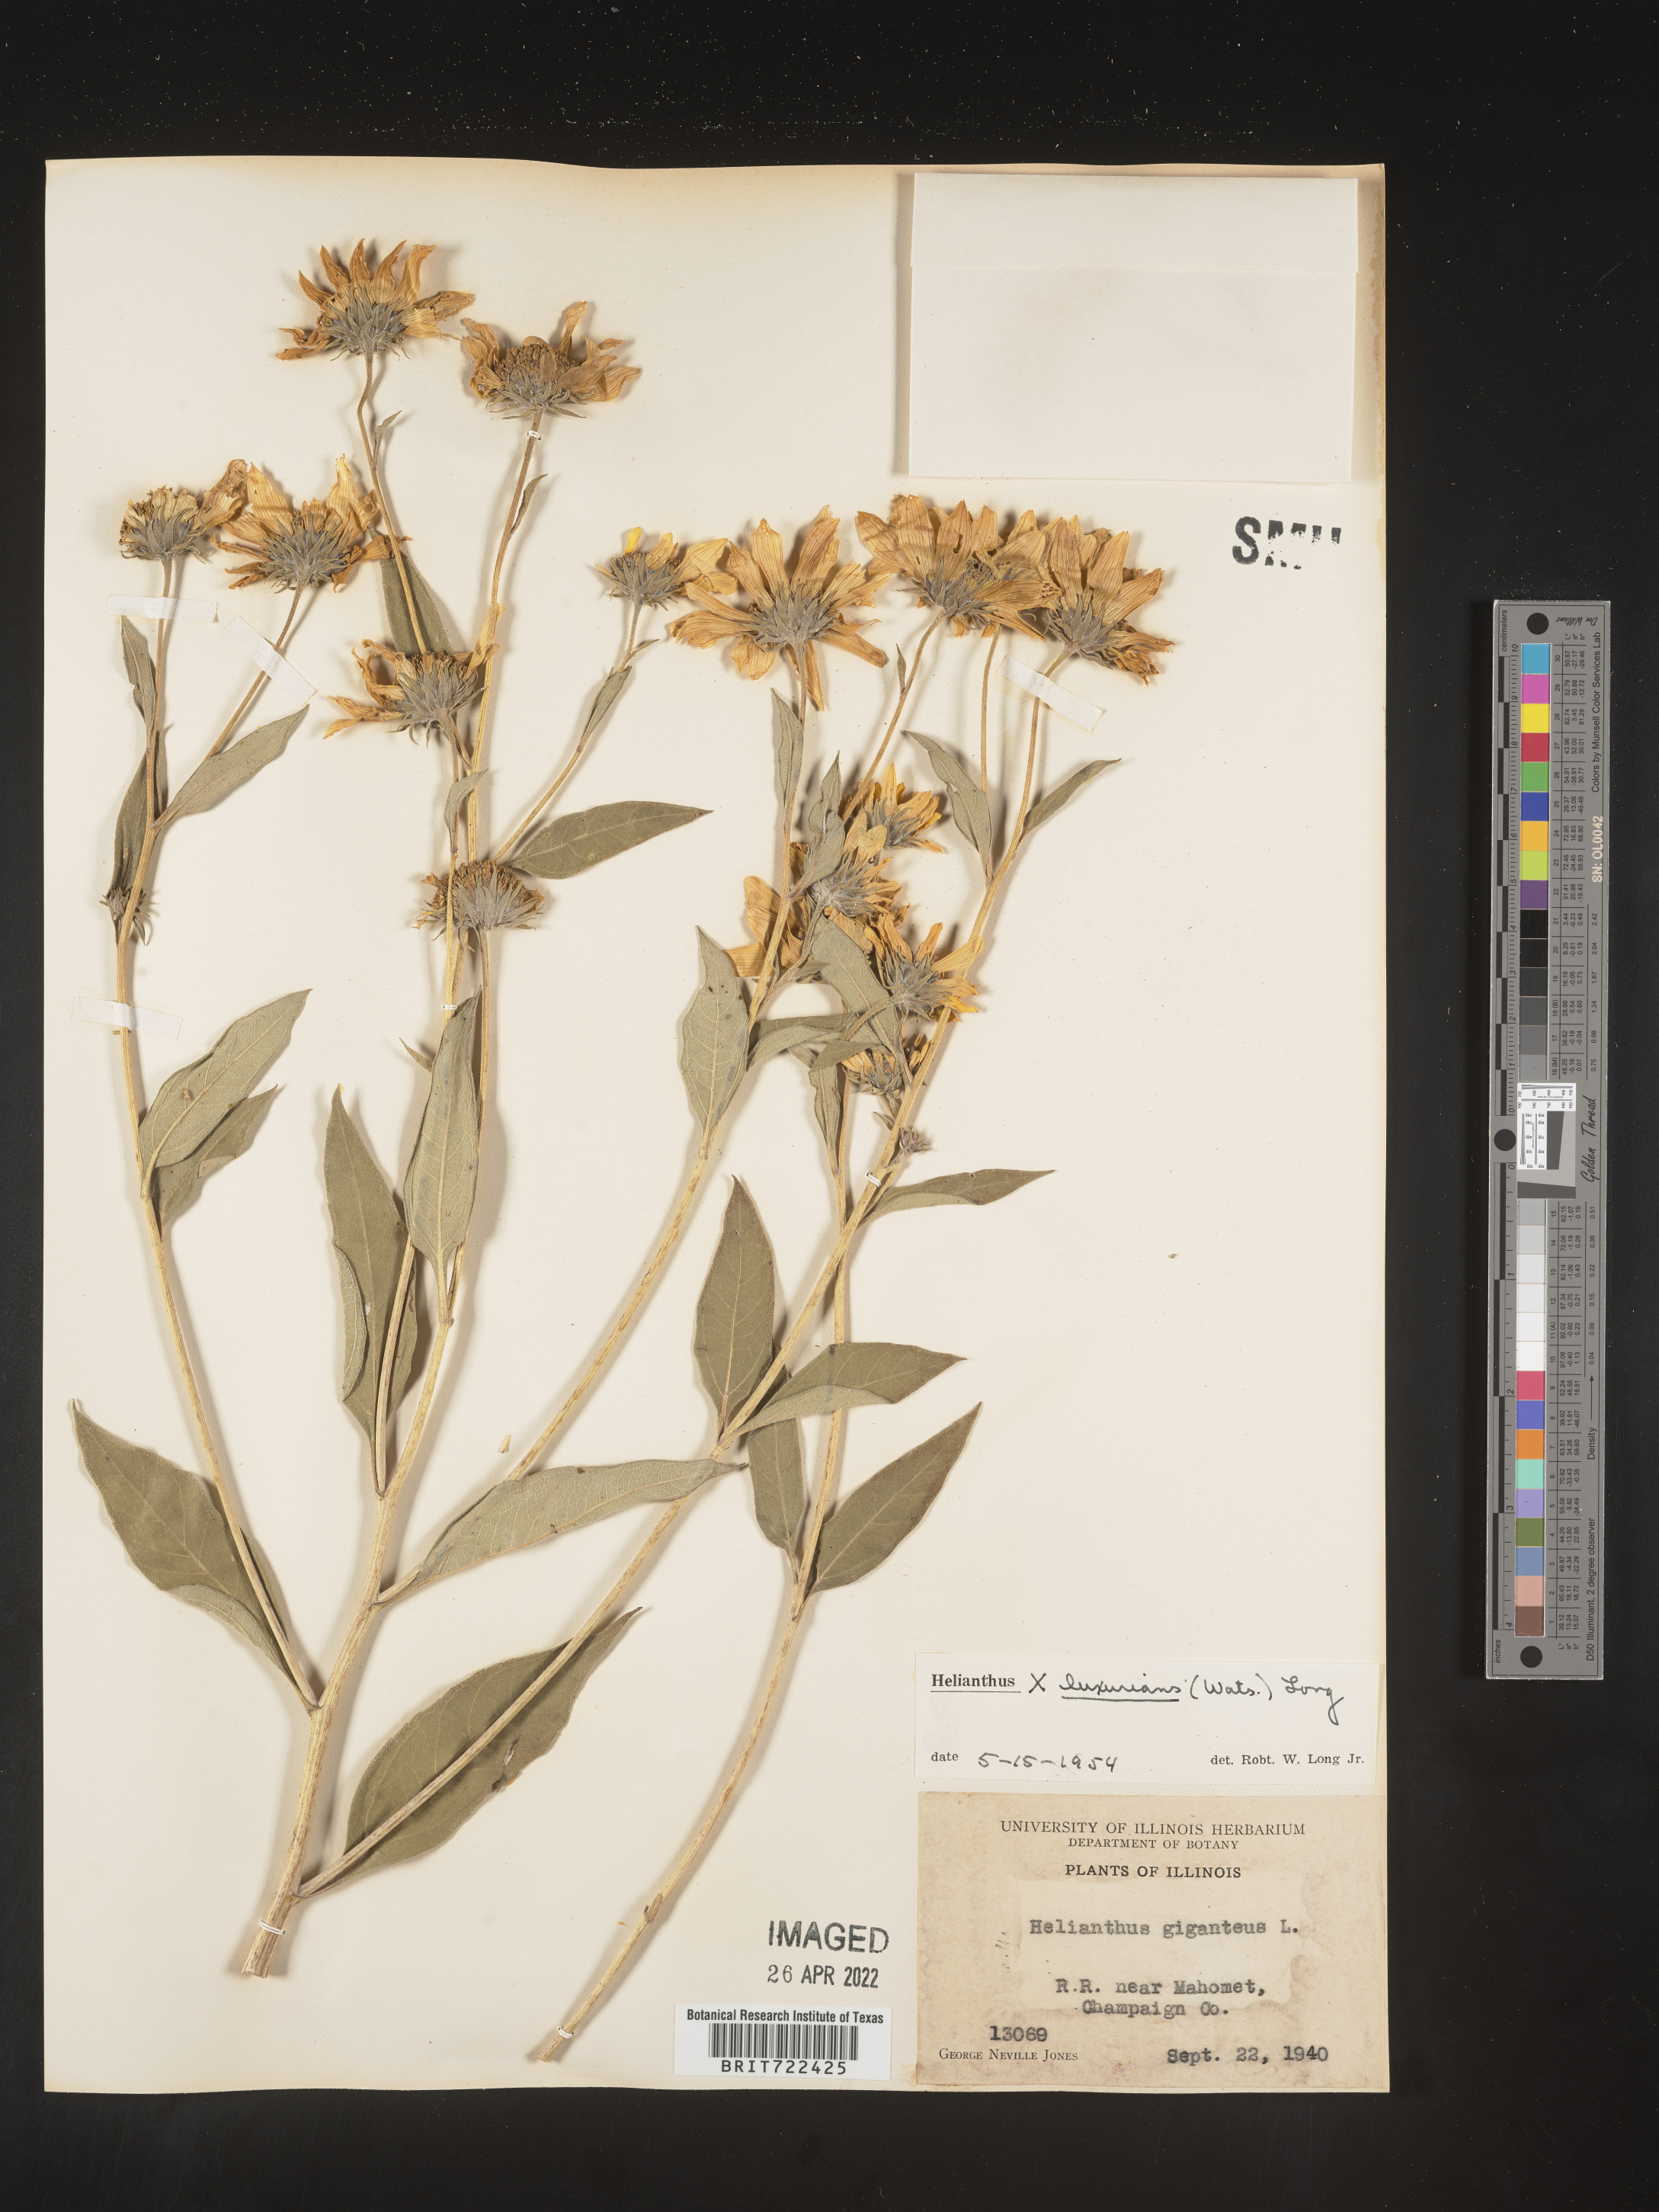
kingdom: Plantae
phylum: Tracheophyta
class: Magnoliopsida
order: Asterales
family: Asteraceae
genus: Helianthus
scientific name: Helianthus
